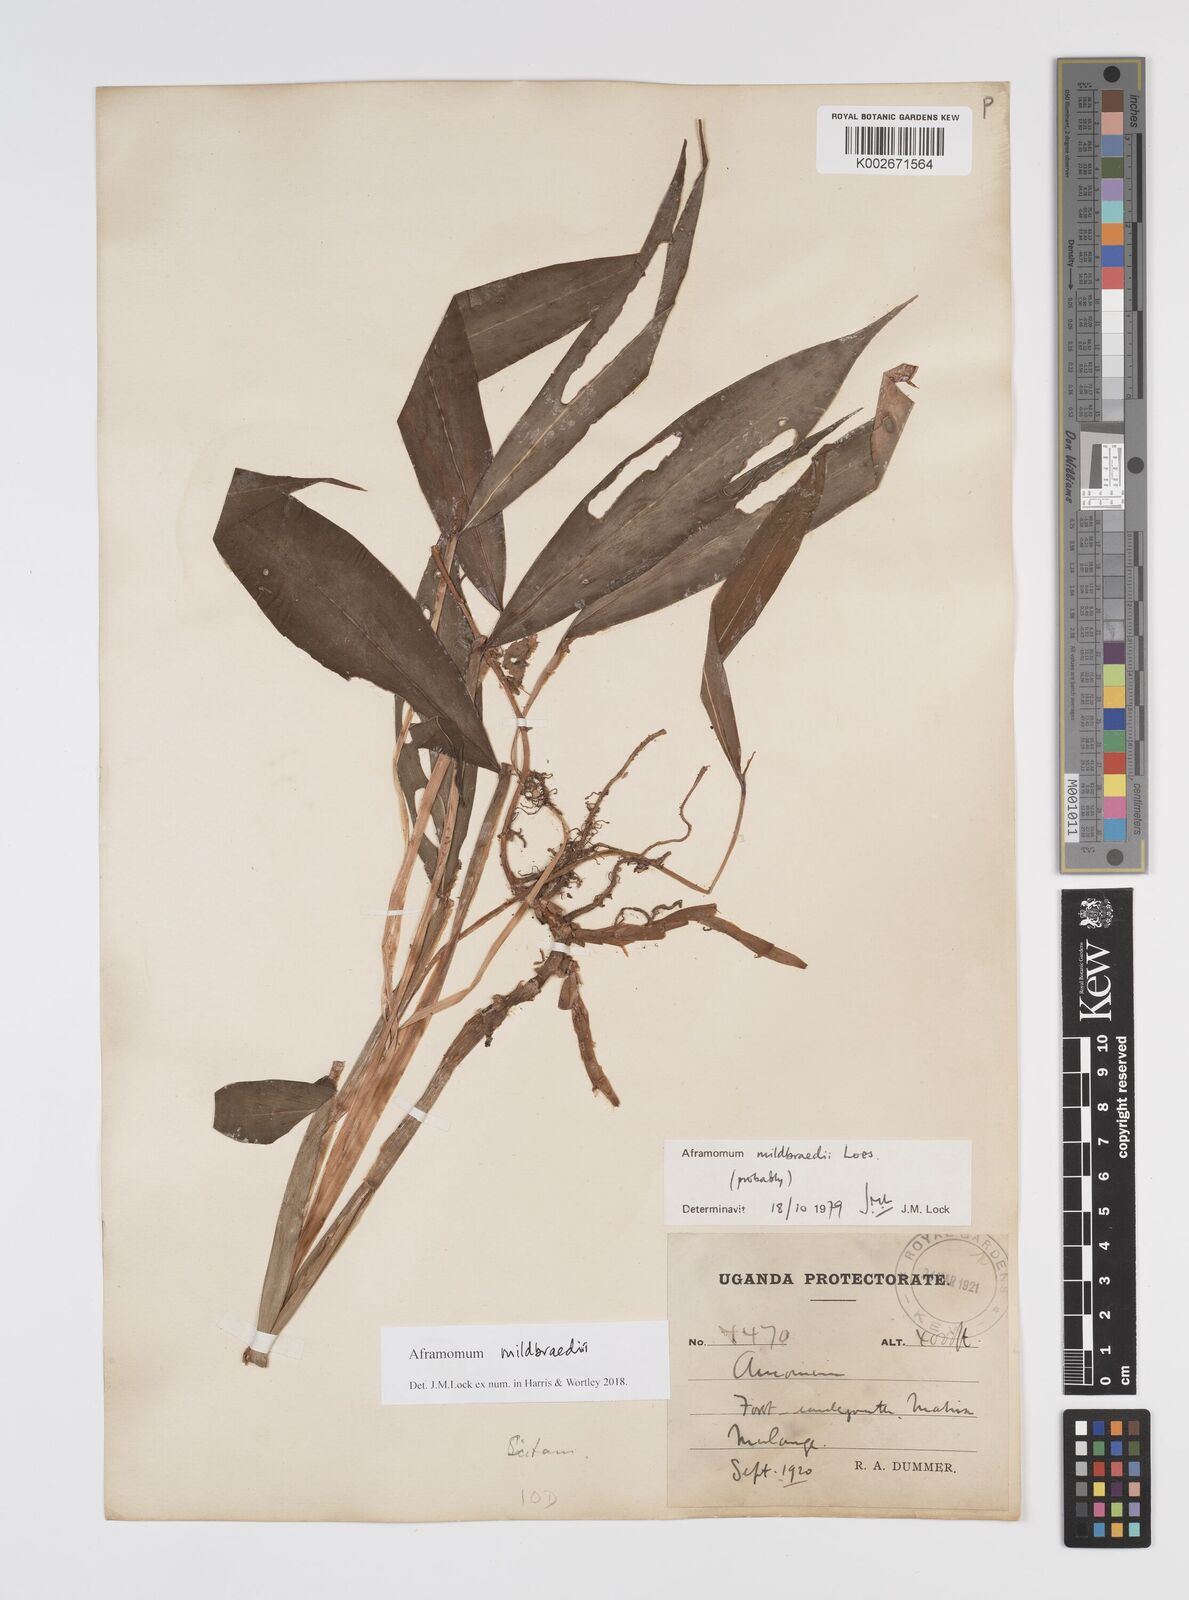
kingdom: Plantae
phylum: Tracheophyta
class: Liliopsida
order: Zingiberales
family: Zingiberaceae
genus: Aframomum
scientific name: Aframomum mildbraedii
